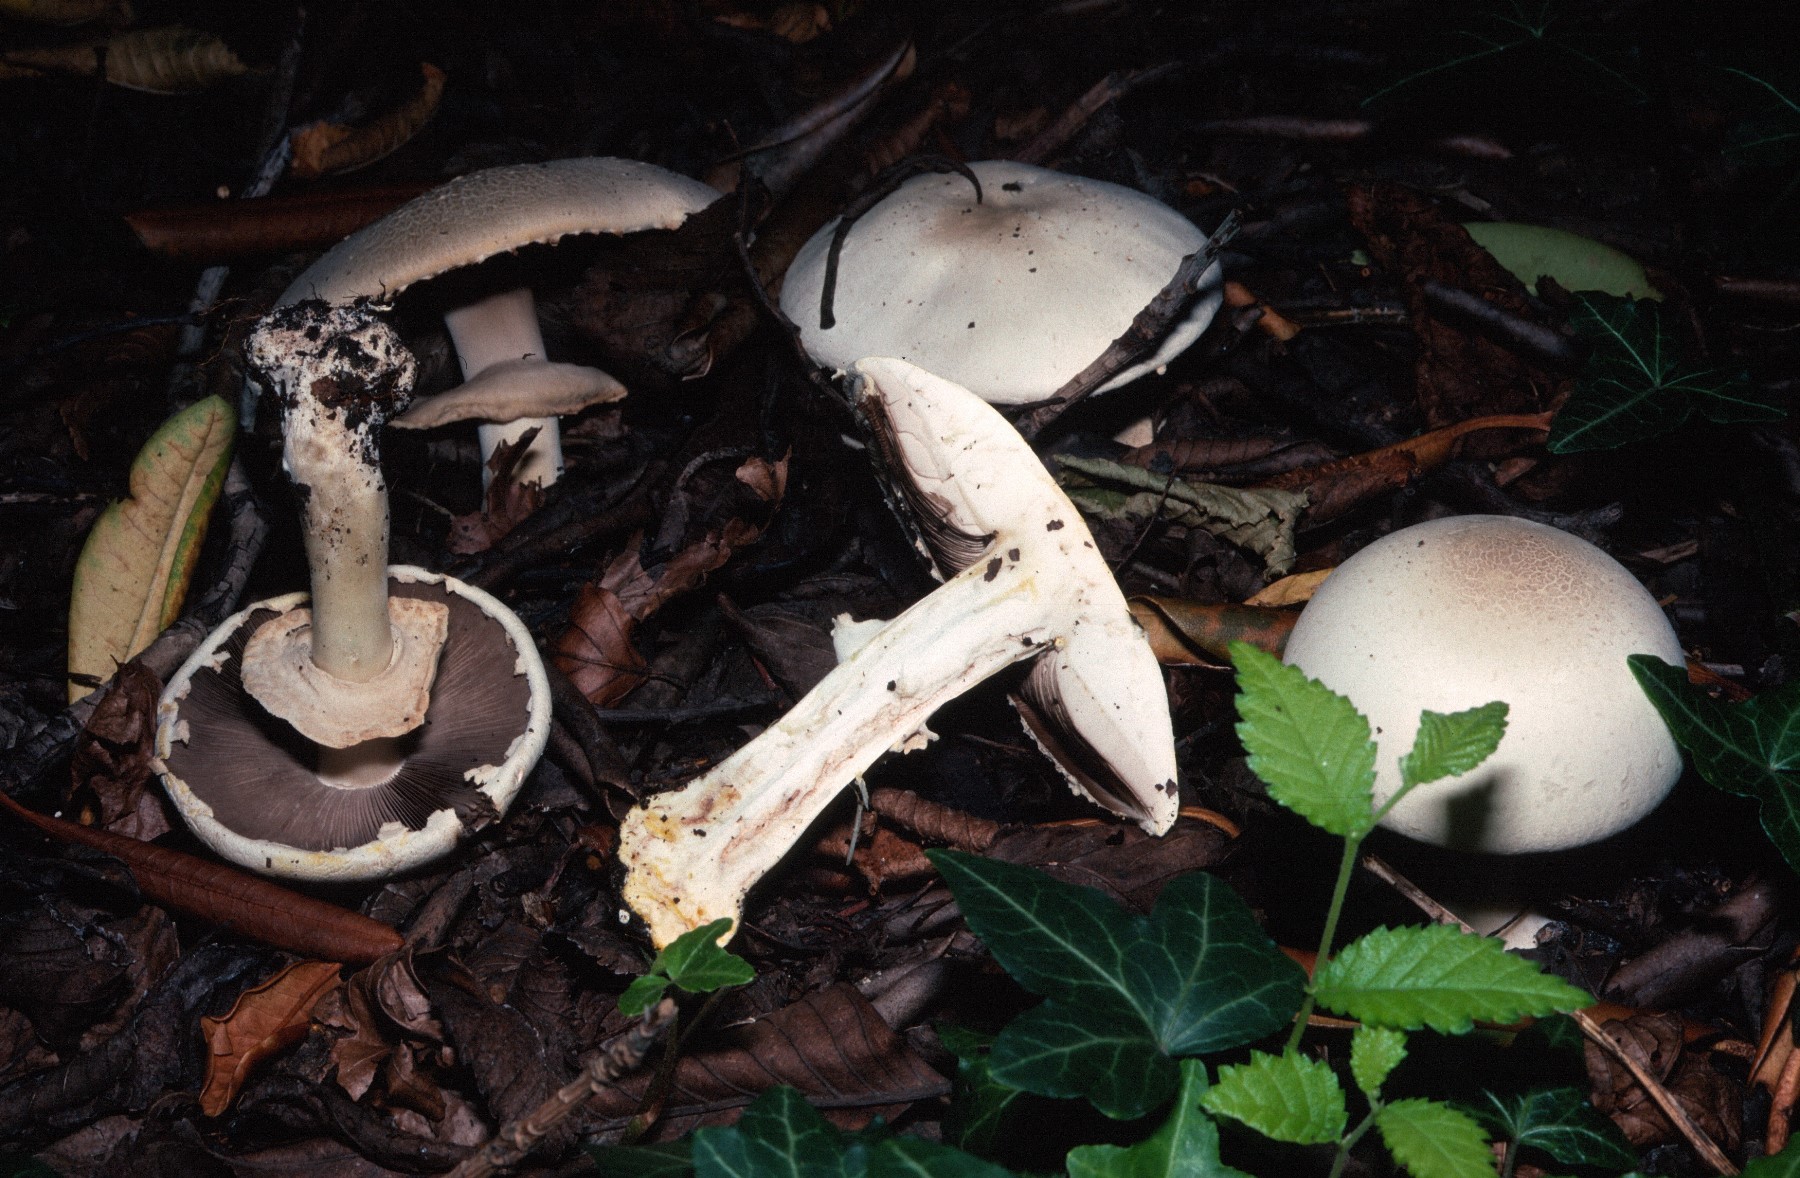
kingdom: Fungi
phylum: Basidiomycota
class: Agaricomycetes
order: Agaricales
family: Agaricaceae
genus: Agaricus
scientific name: Agaricus xanthodermus
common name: karbol-champignon
